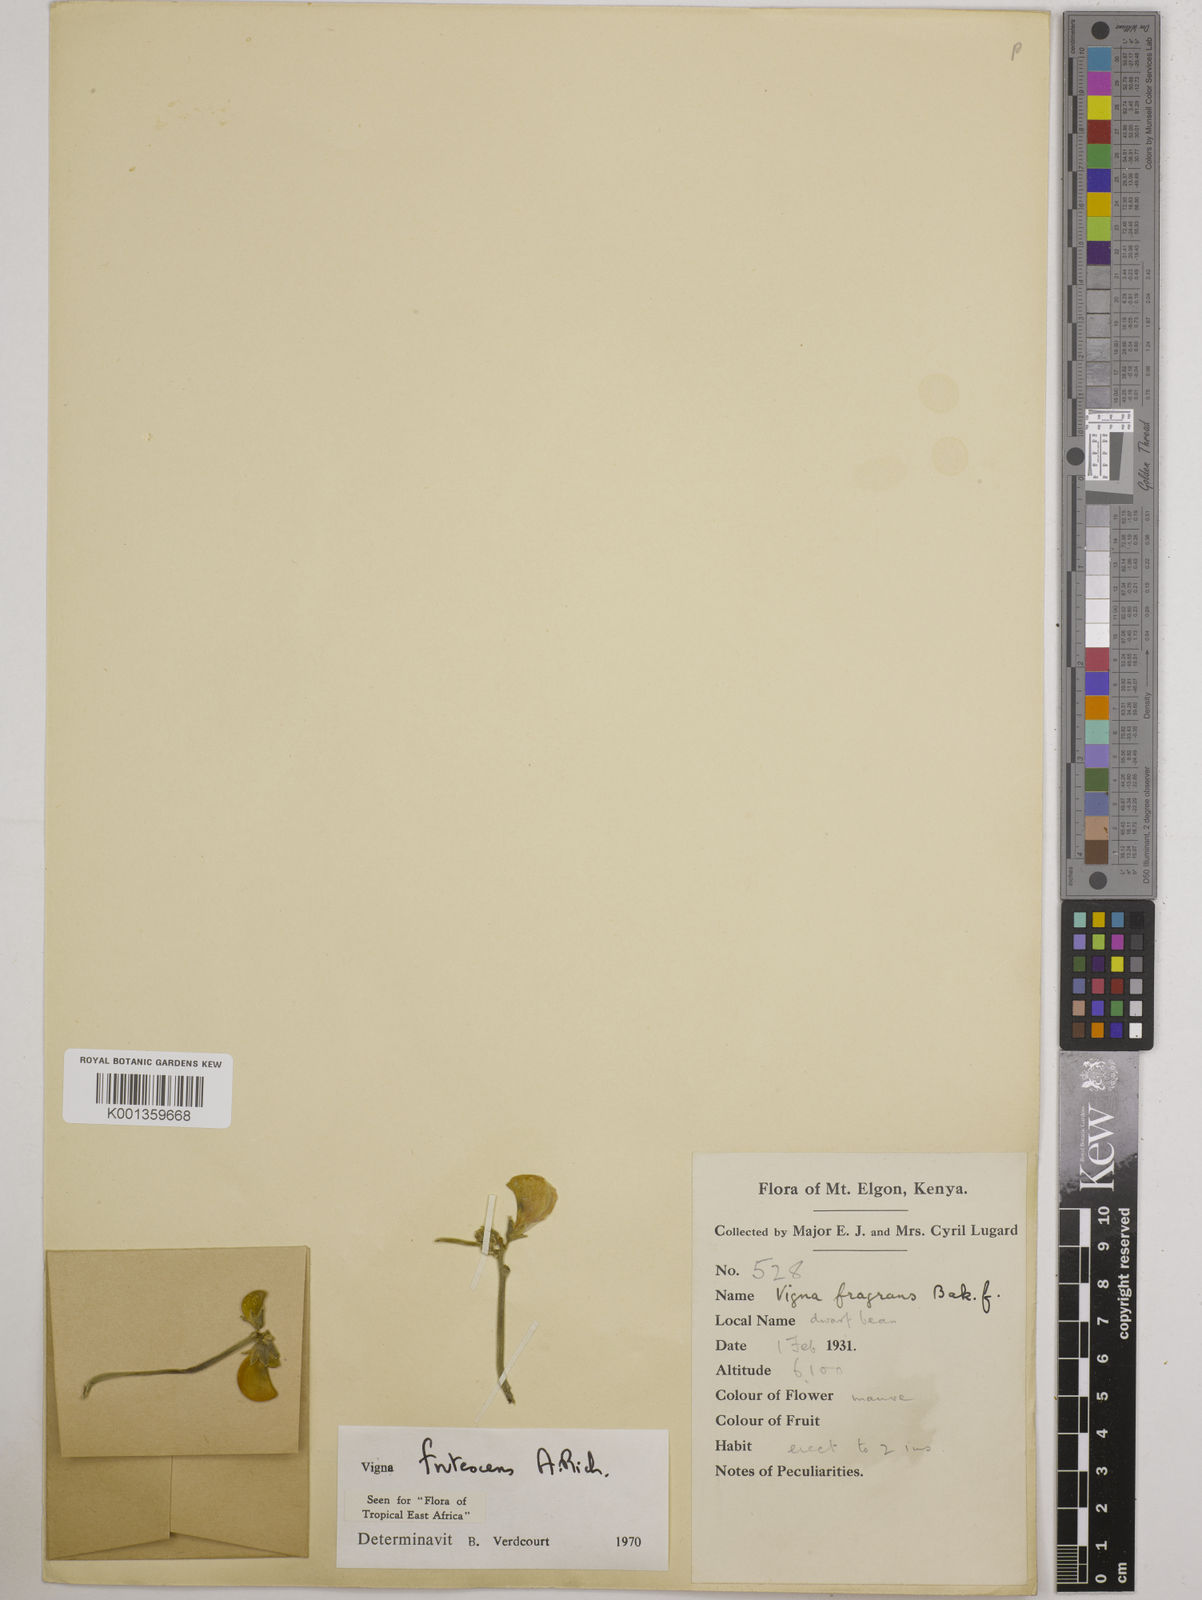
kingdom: Plantae
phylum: Tracheophyta
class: Magnoliopsida
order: Fabales
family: Fabaceae
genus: Vigna
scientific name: Vigna frutescens
